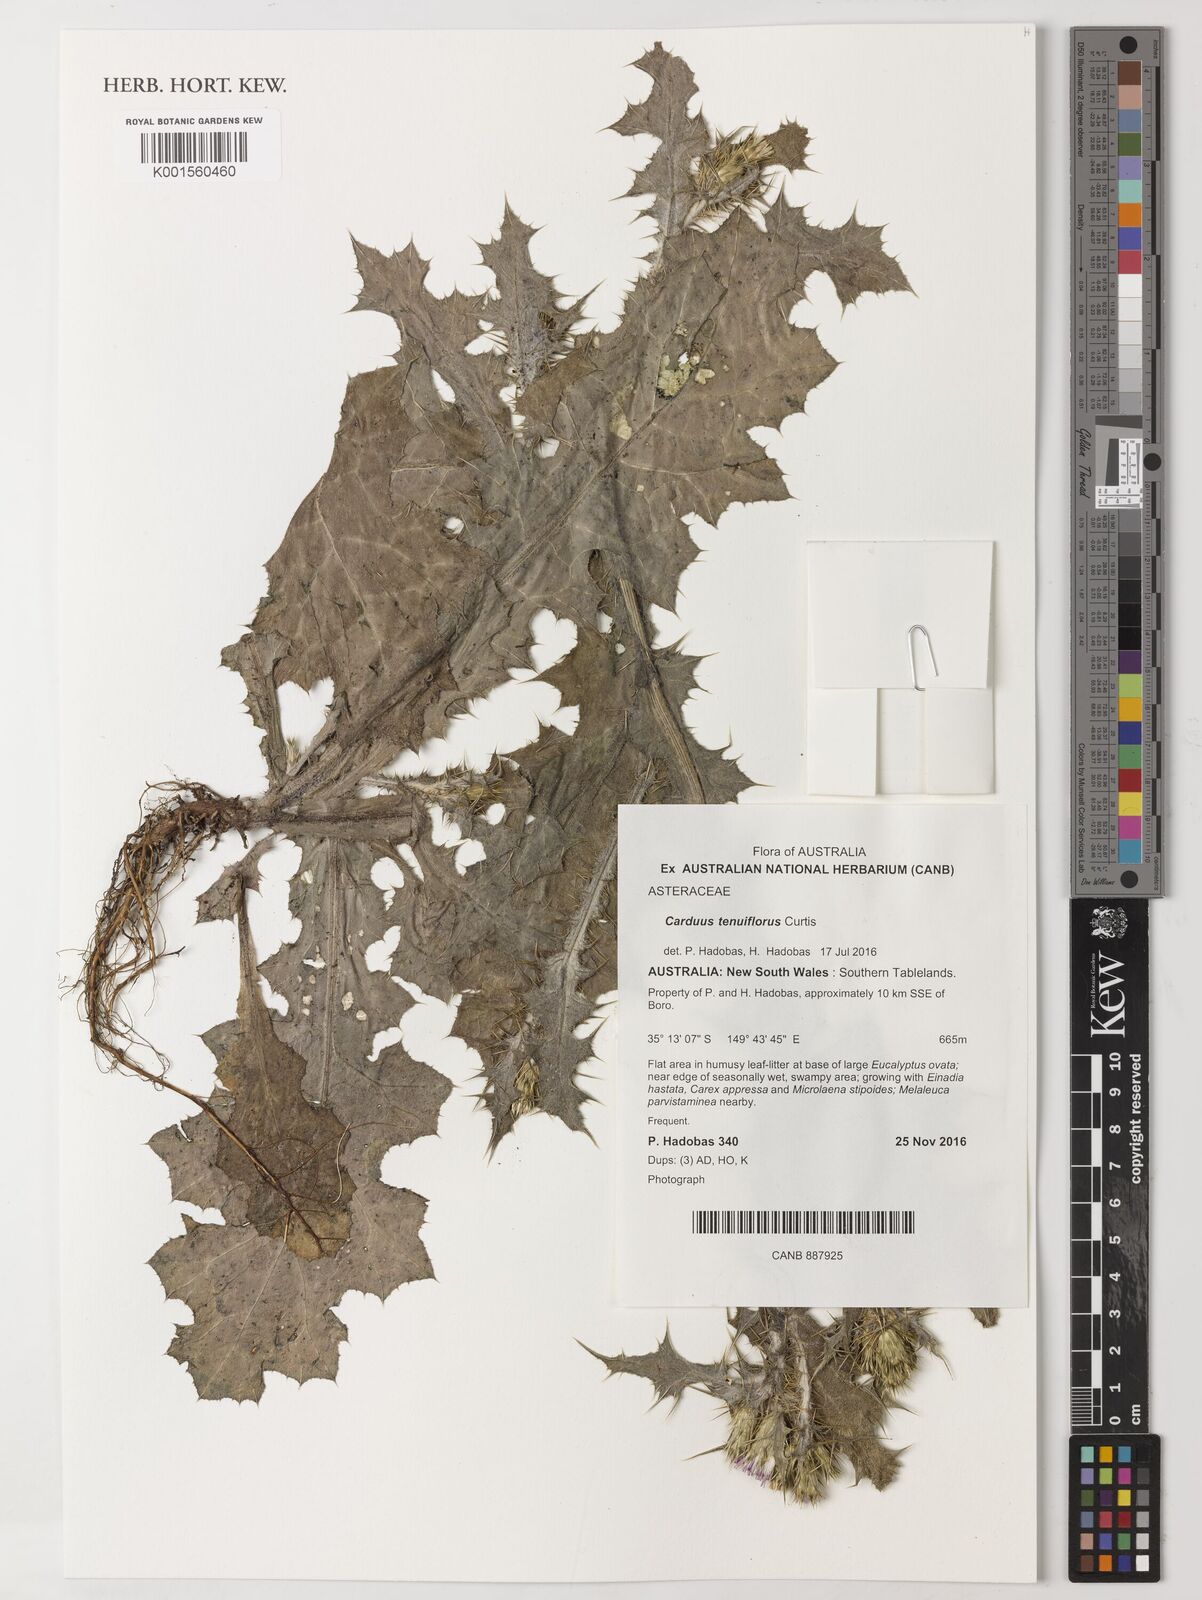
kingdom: Plantae
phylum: Tracheophyta
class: Magnoliopsida
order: Asterales
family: Asteraceae
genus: Carduus
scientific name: Carduus tenuiflorus
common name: Slender thistle
